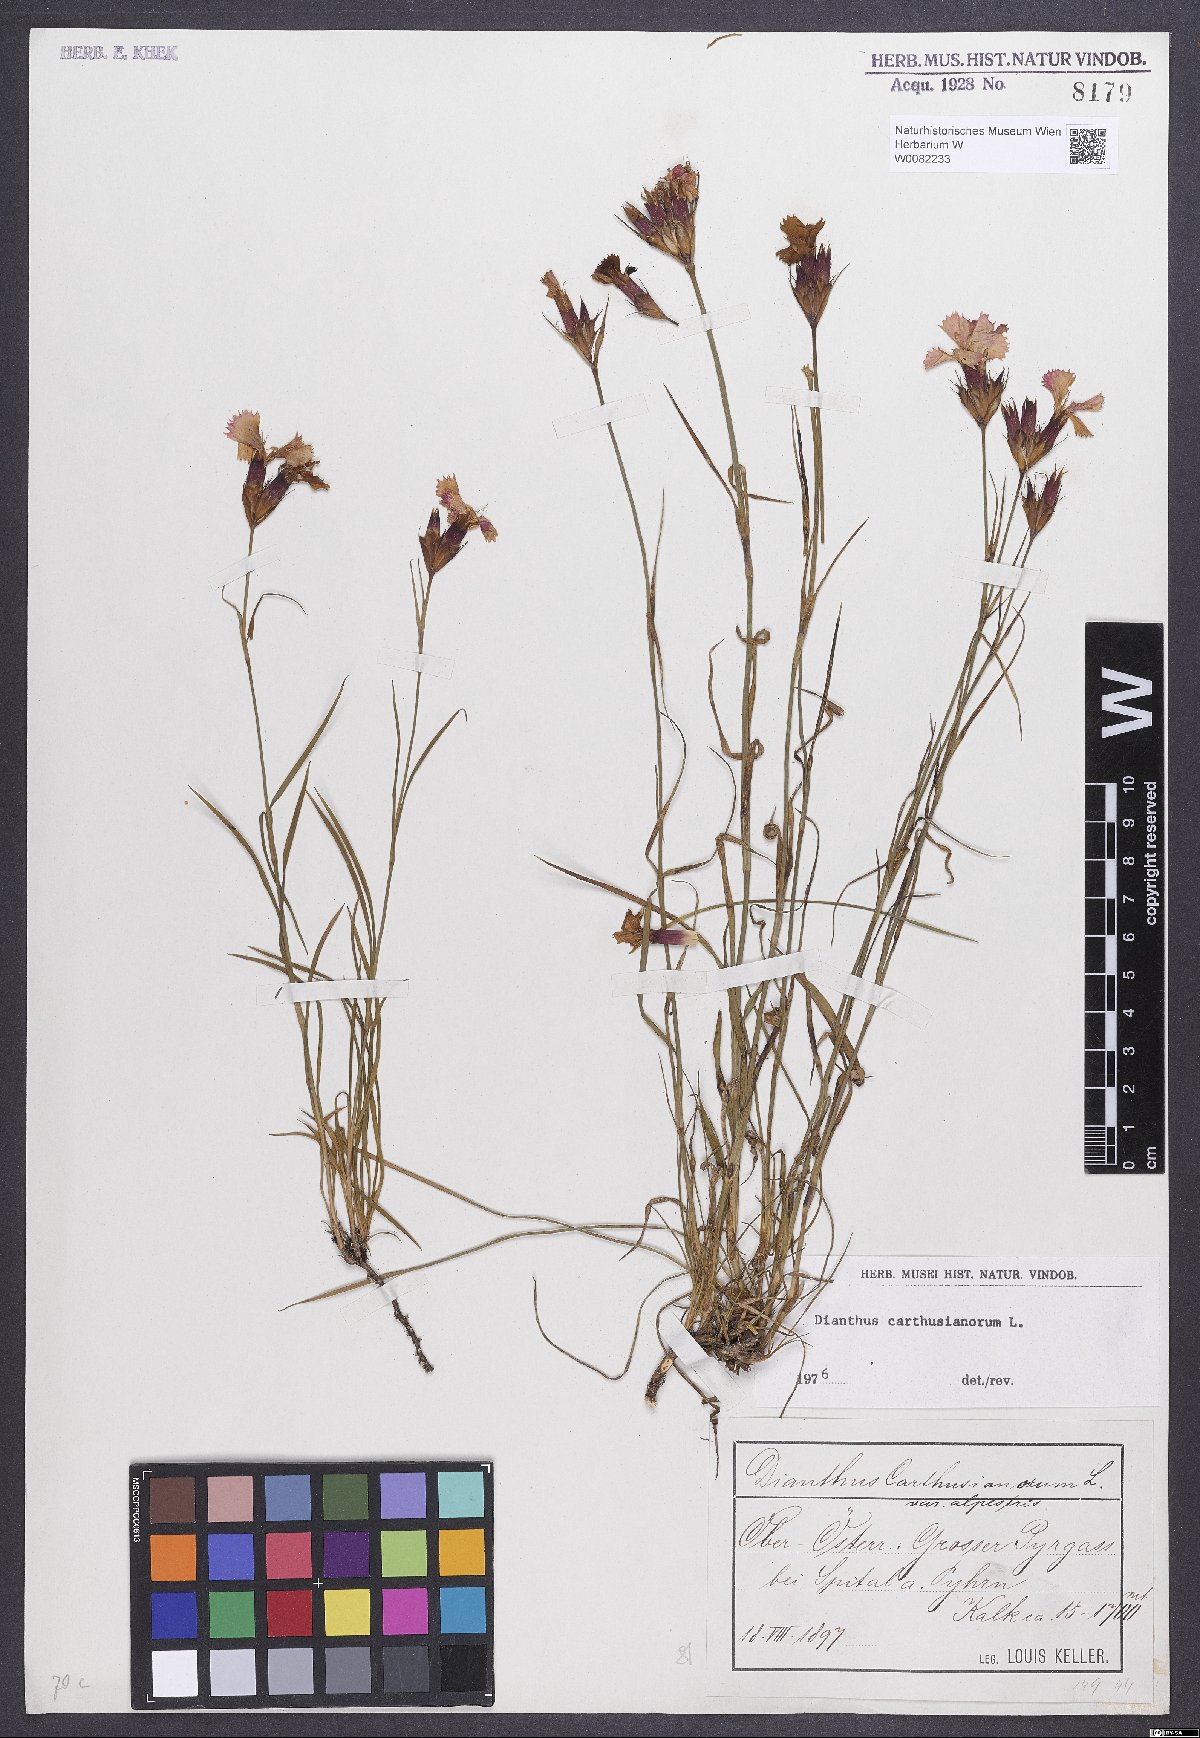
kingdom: Plantae
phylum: Tracheophyta
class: Magnoliopsida
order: Caryophyllales
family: Caryophyllaceae
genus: Dianthus
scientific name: Dianthus carthusianorum
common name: Carthusian pink
